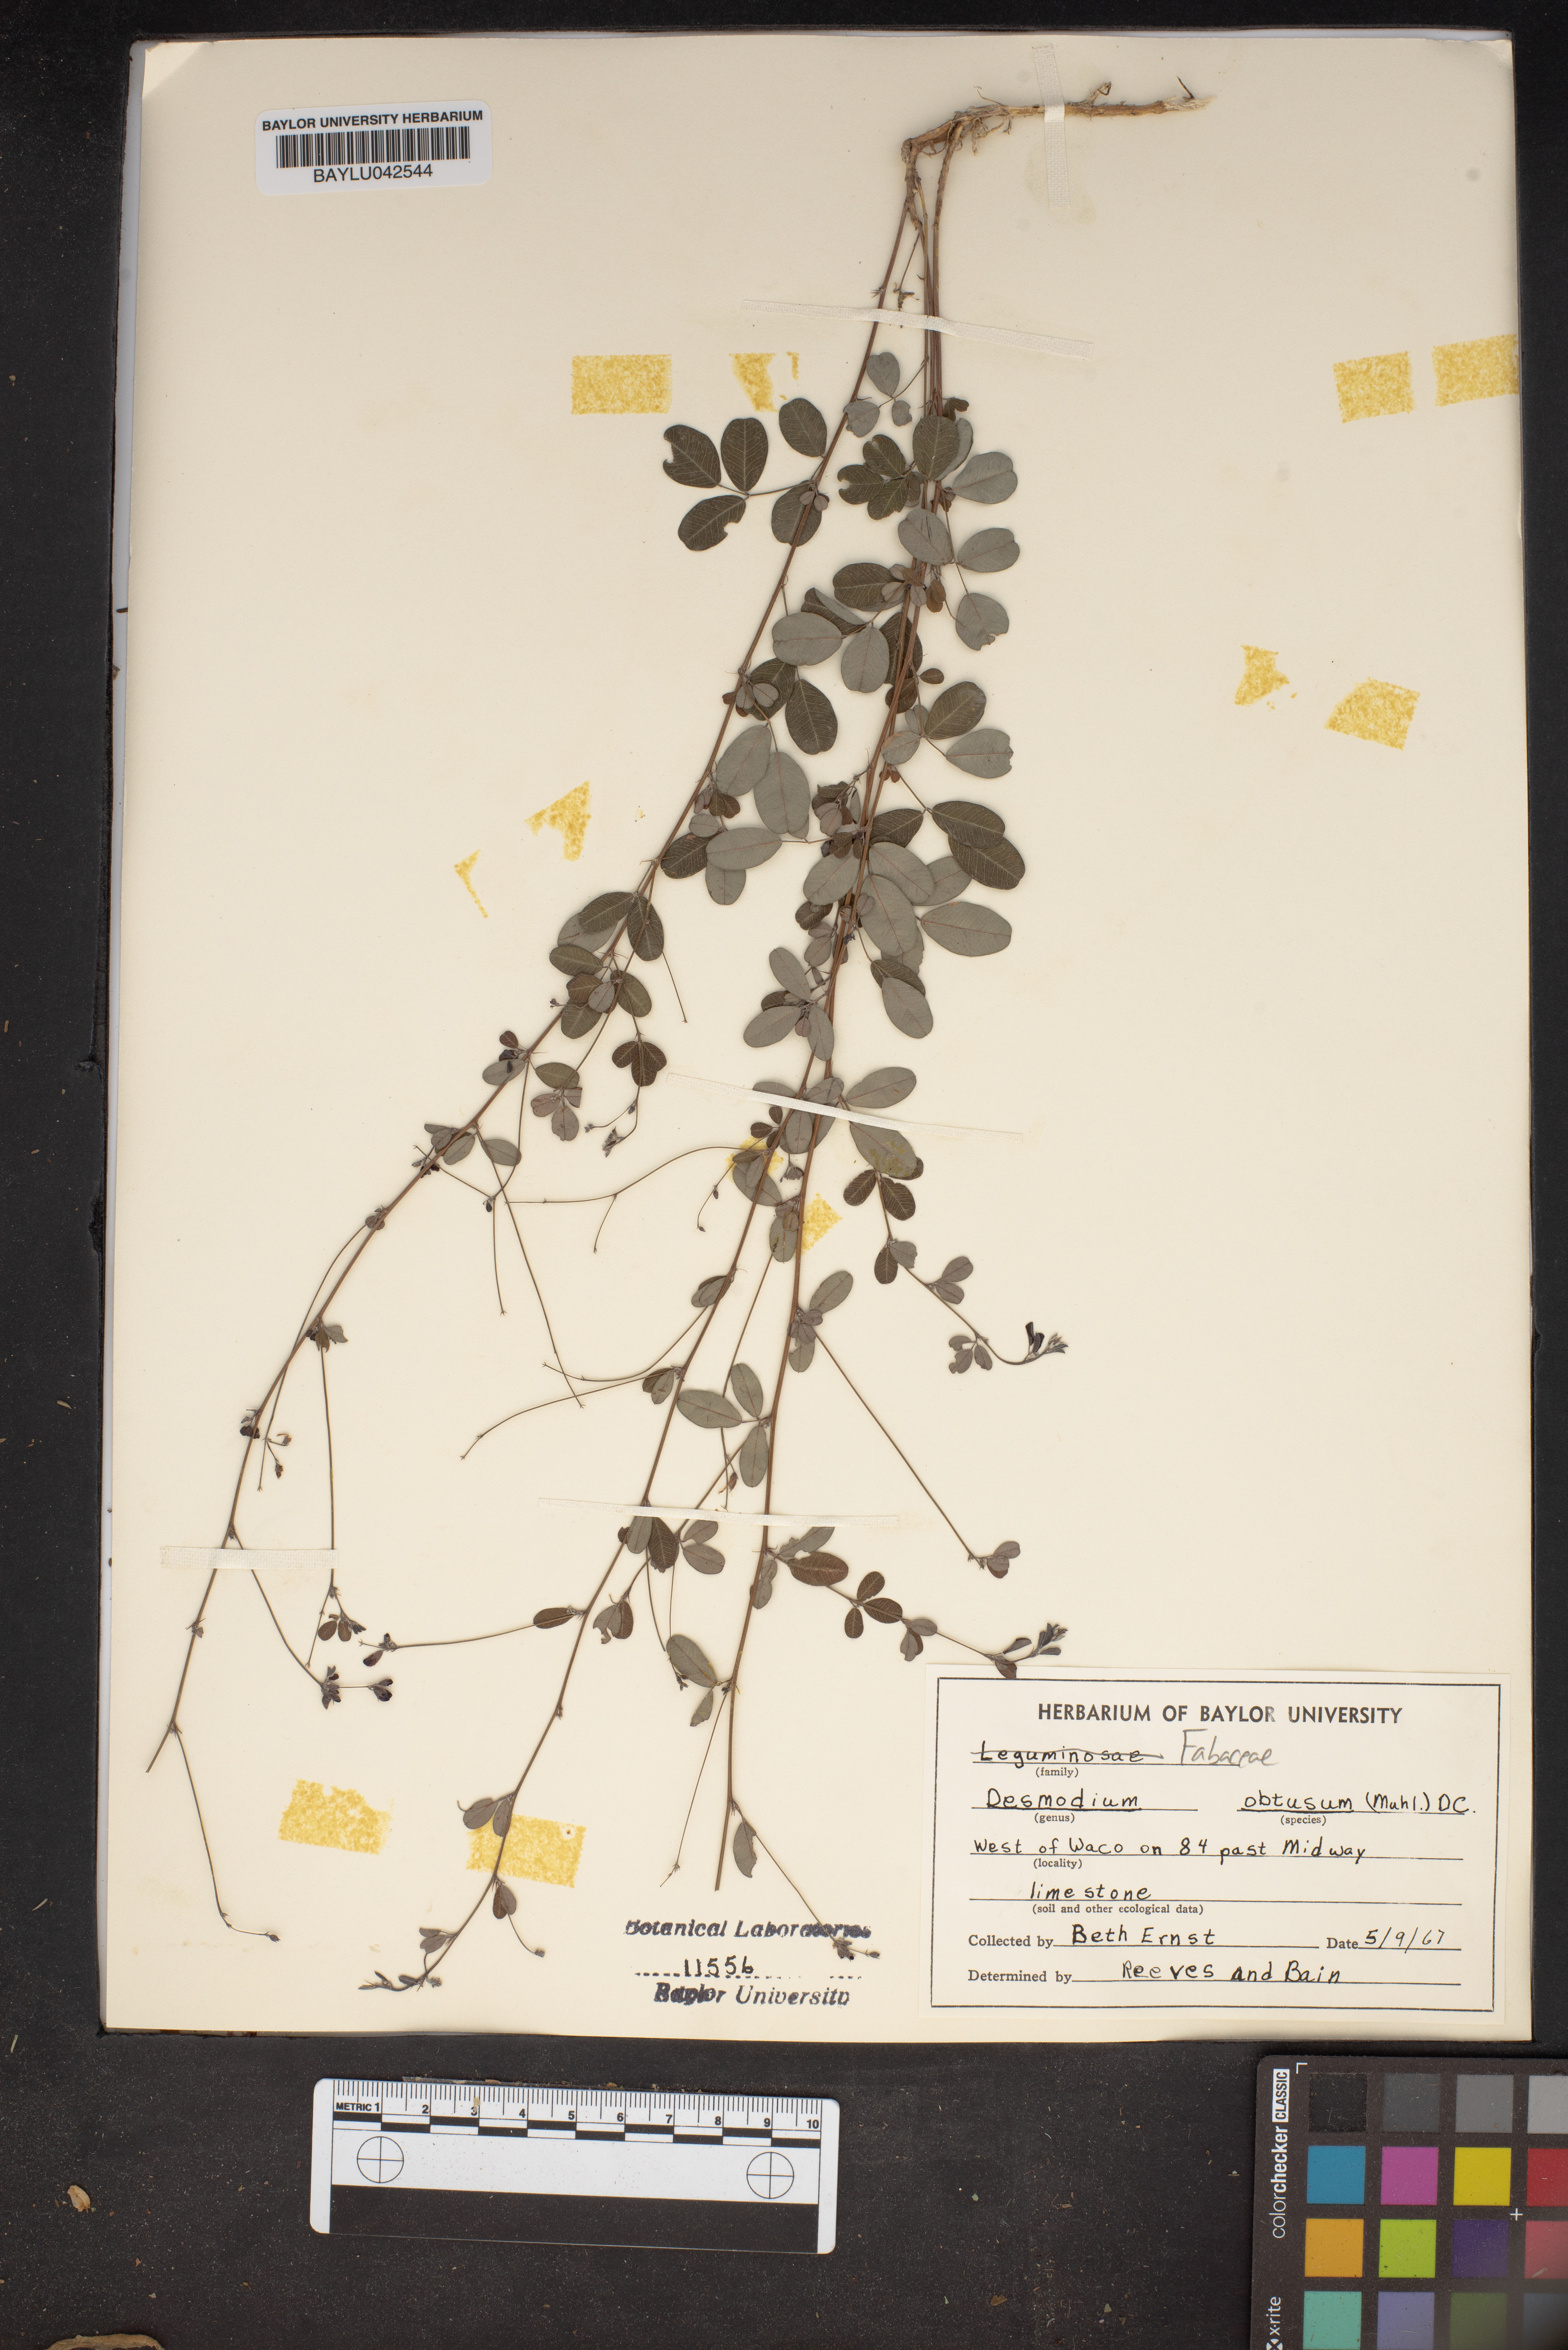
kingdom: Plantae
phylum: Tracheophyta
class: Magnoliopsida
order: Fabales
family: Fabaceae
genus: Desmodium
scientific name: Desmodium obtusum
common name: Stiff tick trefoil
